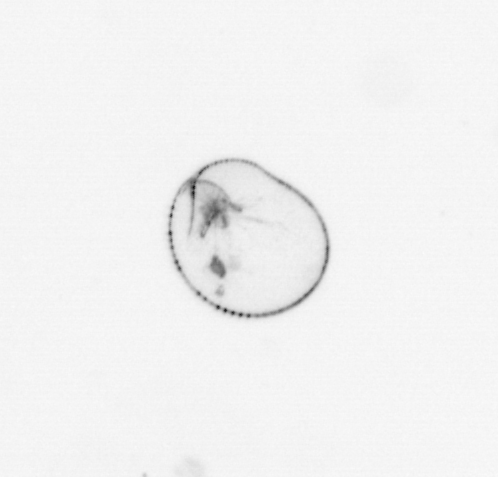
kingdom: Chromista
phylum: Myzozoa
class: Dinophyceae
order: Noctilucales
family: Noctilucaceae
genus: Noctiluca
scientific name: Noctiluca scintillans
